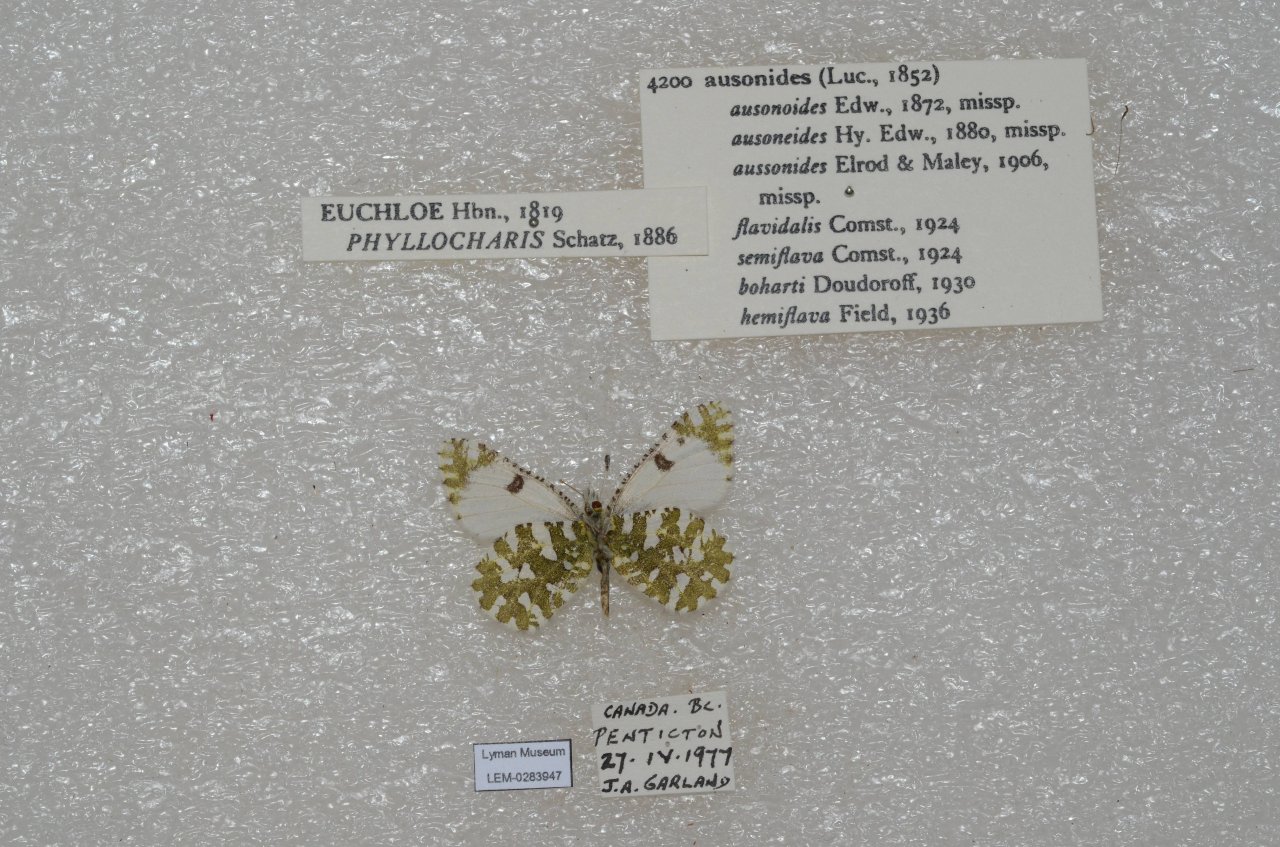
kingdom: Animalia
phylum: Arthropoda
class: Insecta
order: Lepidoptera
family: Pieridae
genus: Euchloe
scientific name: Euchloe ausonides
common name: Large Marble
